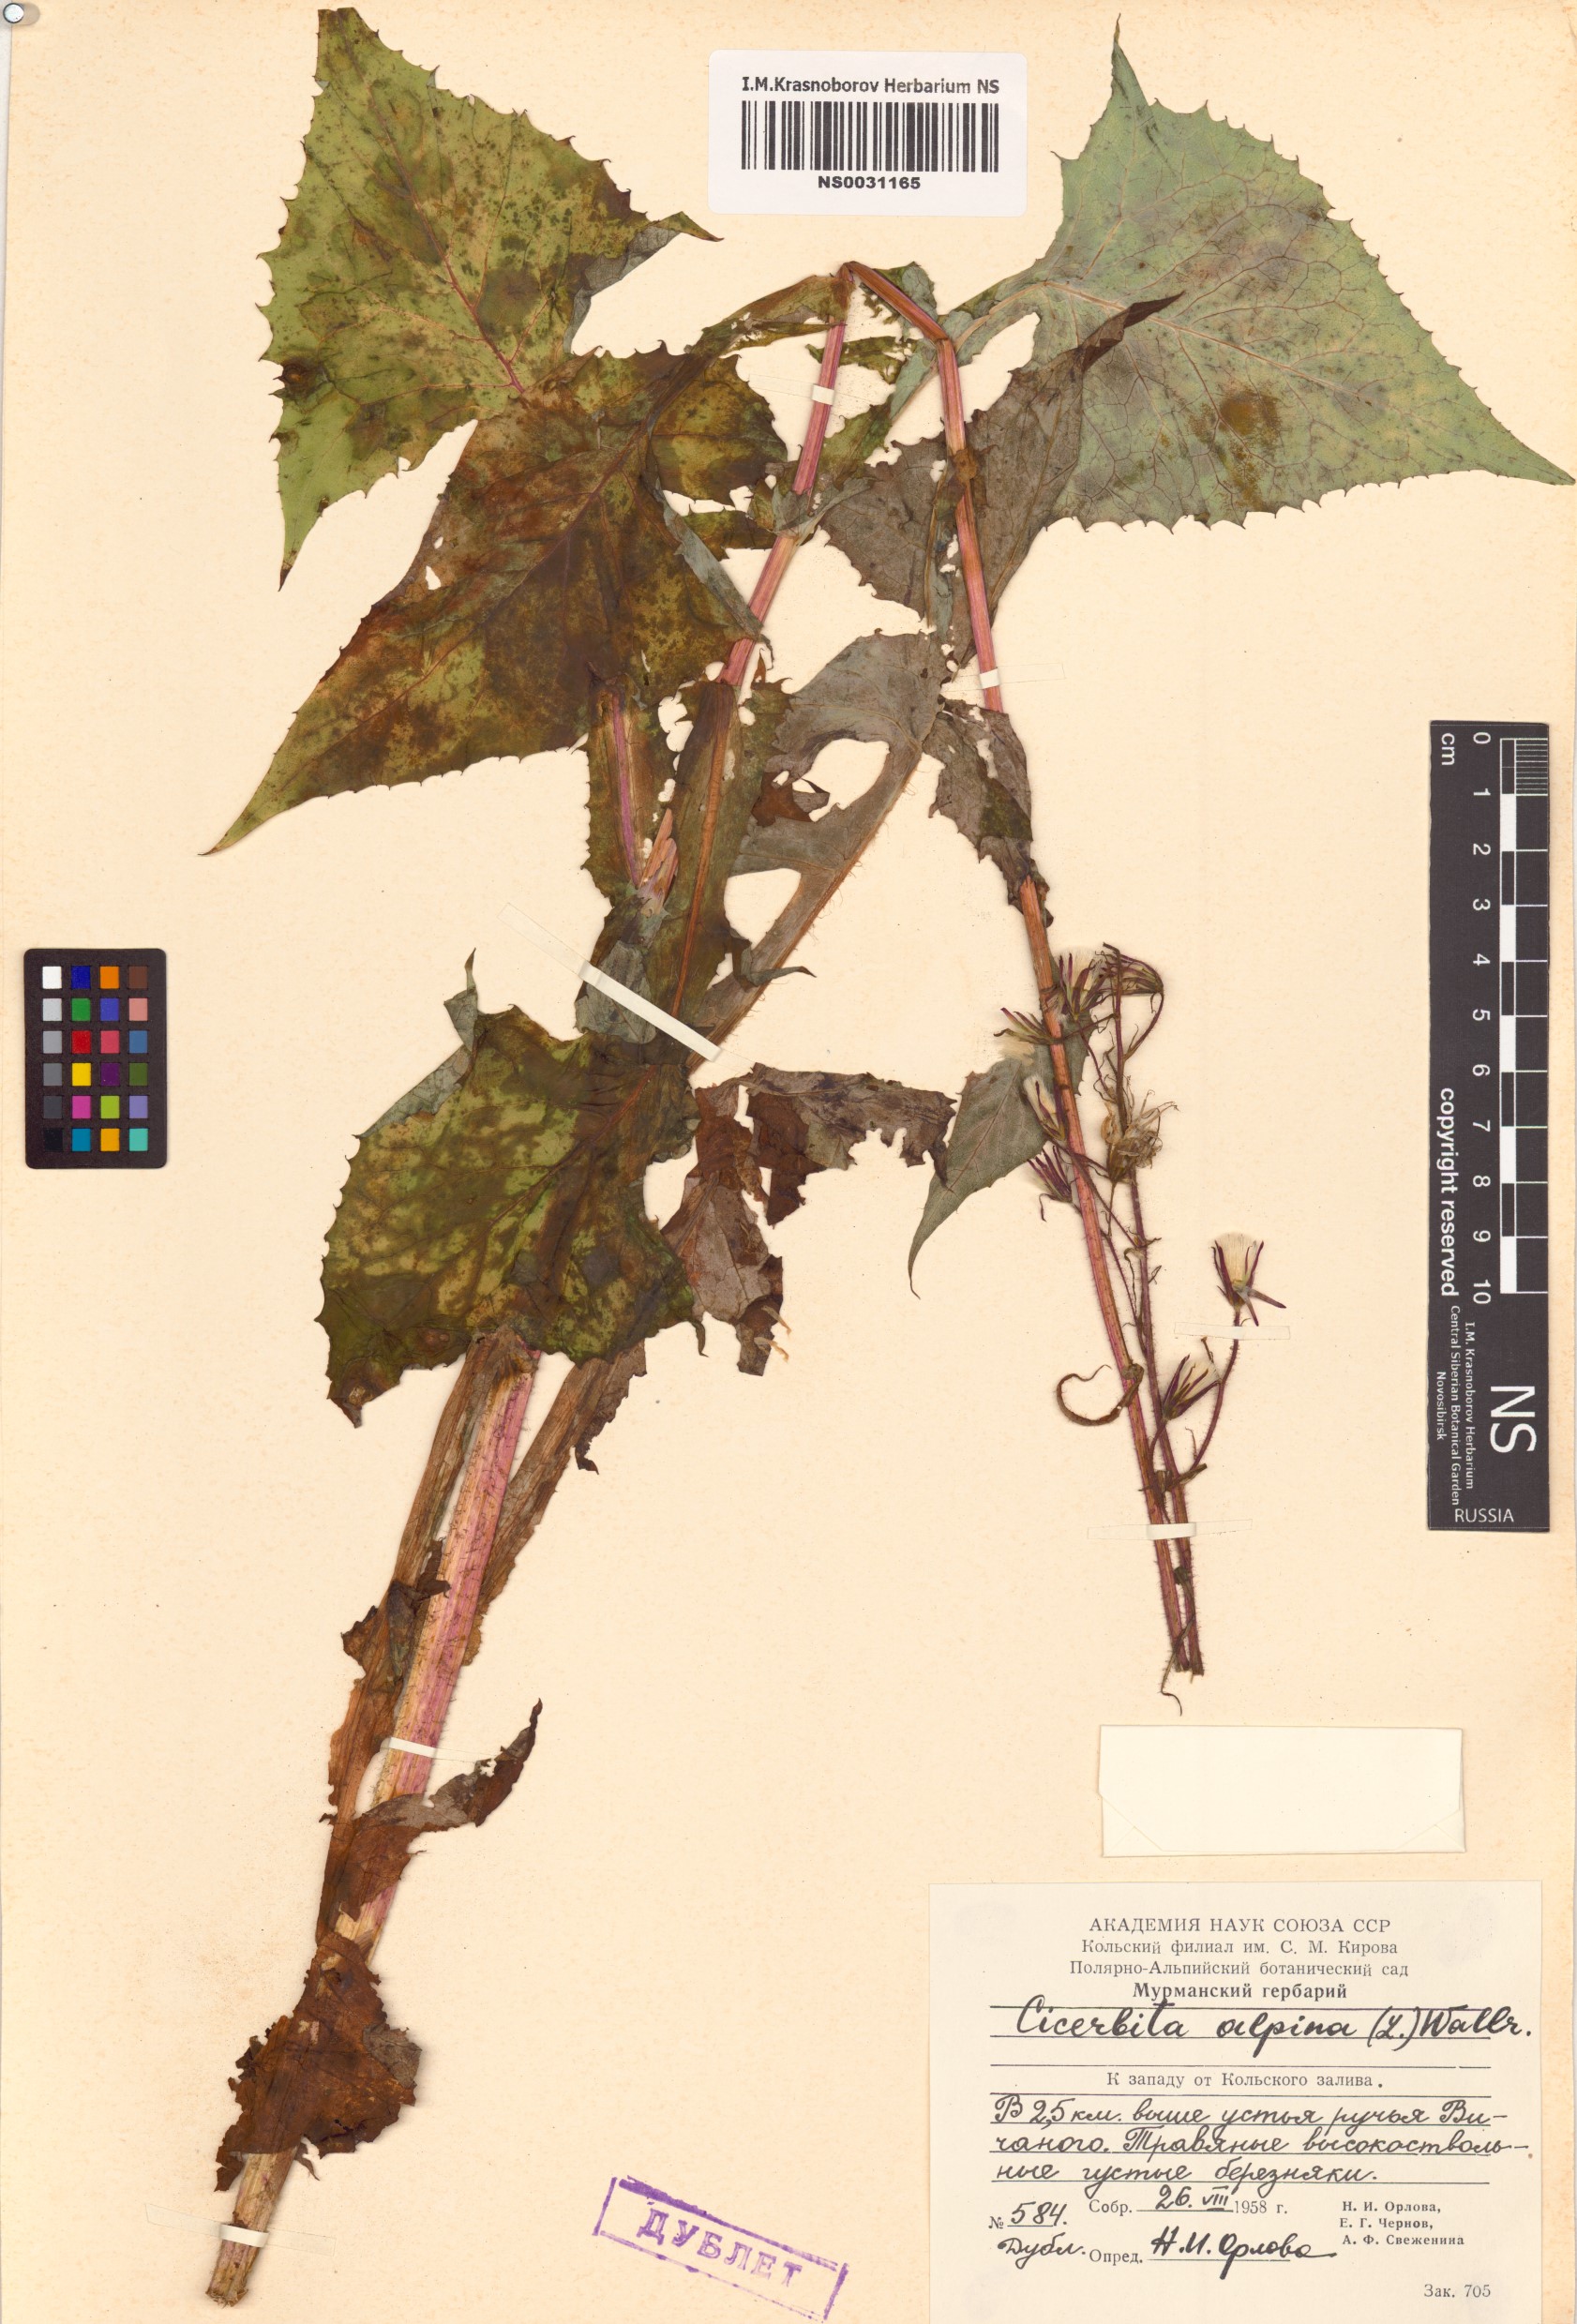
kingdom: Plantae
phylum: Tracheophyta
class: Magnoliopsida
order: Asterales
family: Asteraceae
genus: Cicerbita
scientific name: Cicerbita alpina
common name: Alpine blue-sow-thistle
